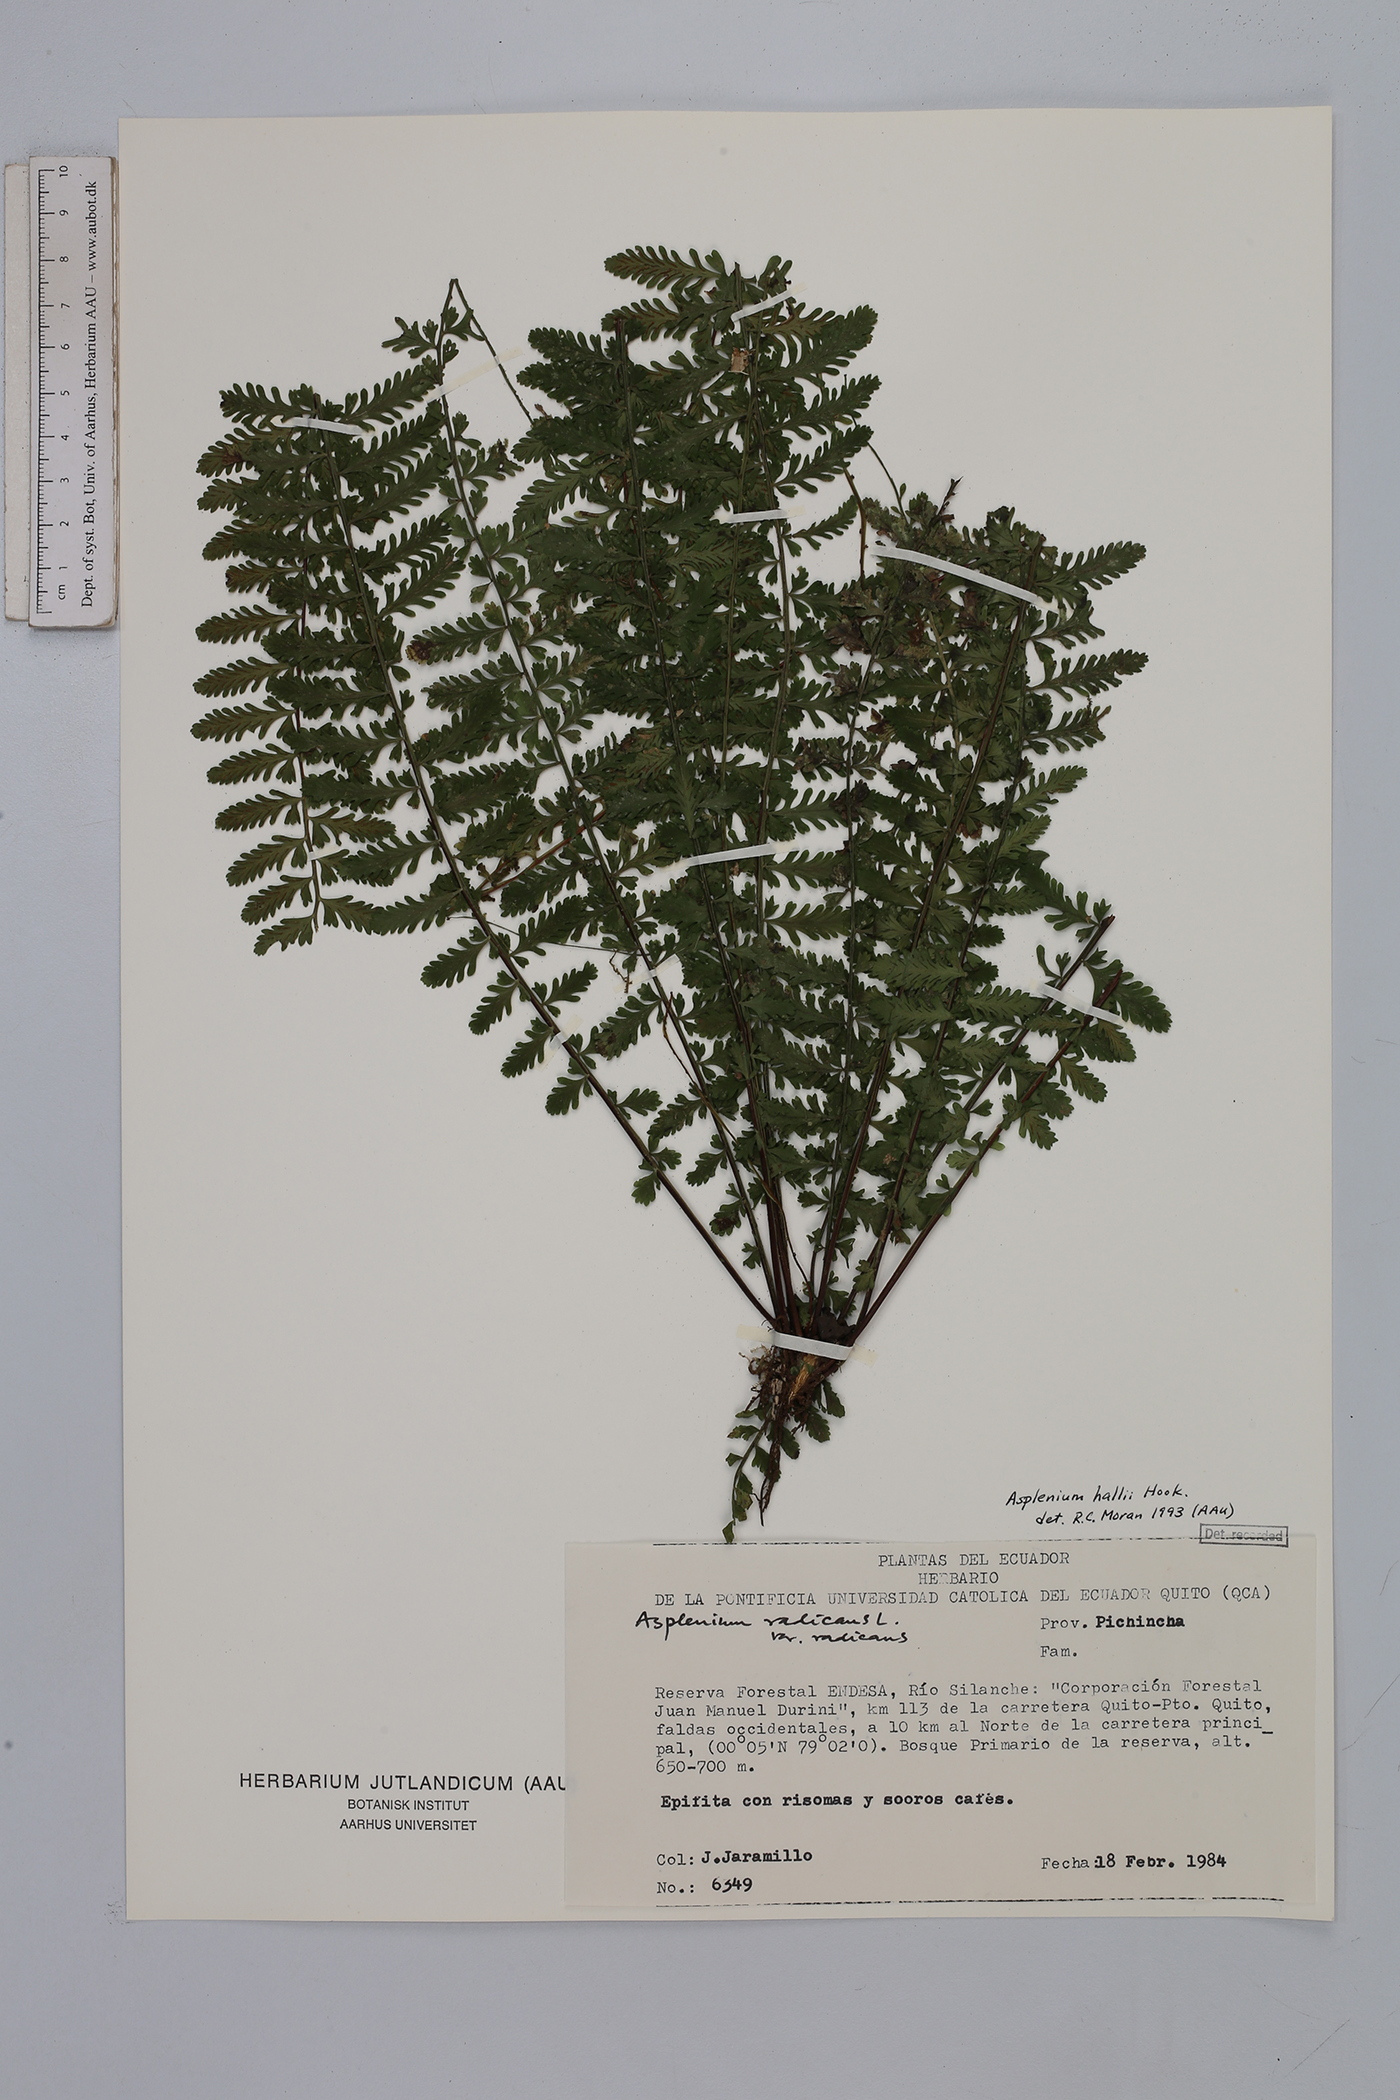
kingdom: Plantae
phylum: Tracheophyta
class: Polypodiopsida
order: Polypodiales
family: Aspleniaceae
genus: Asplenium
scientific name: Asplenium hallii
